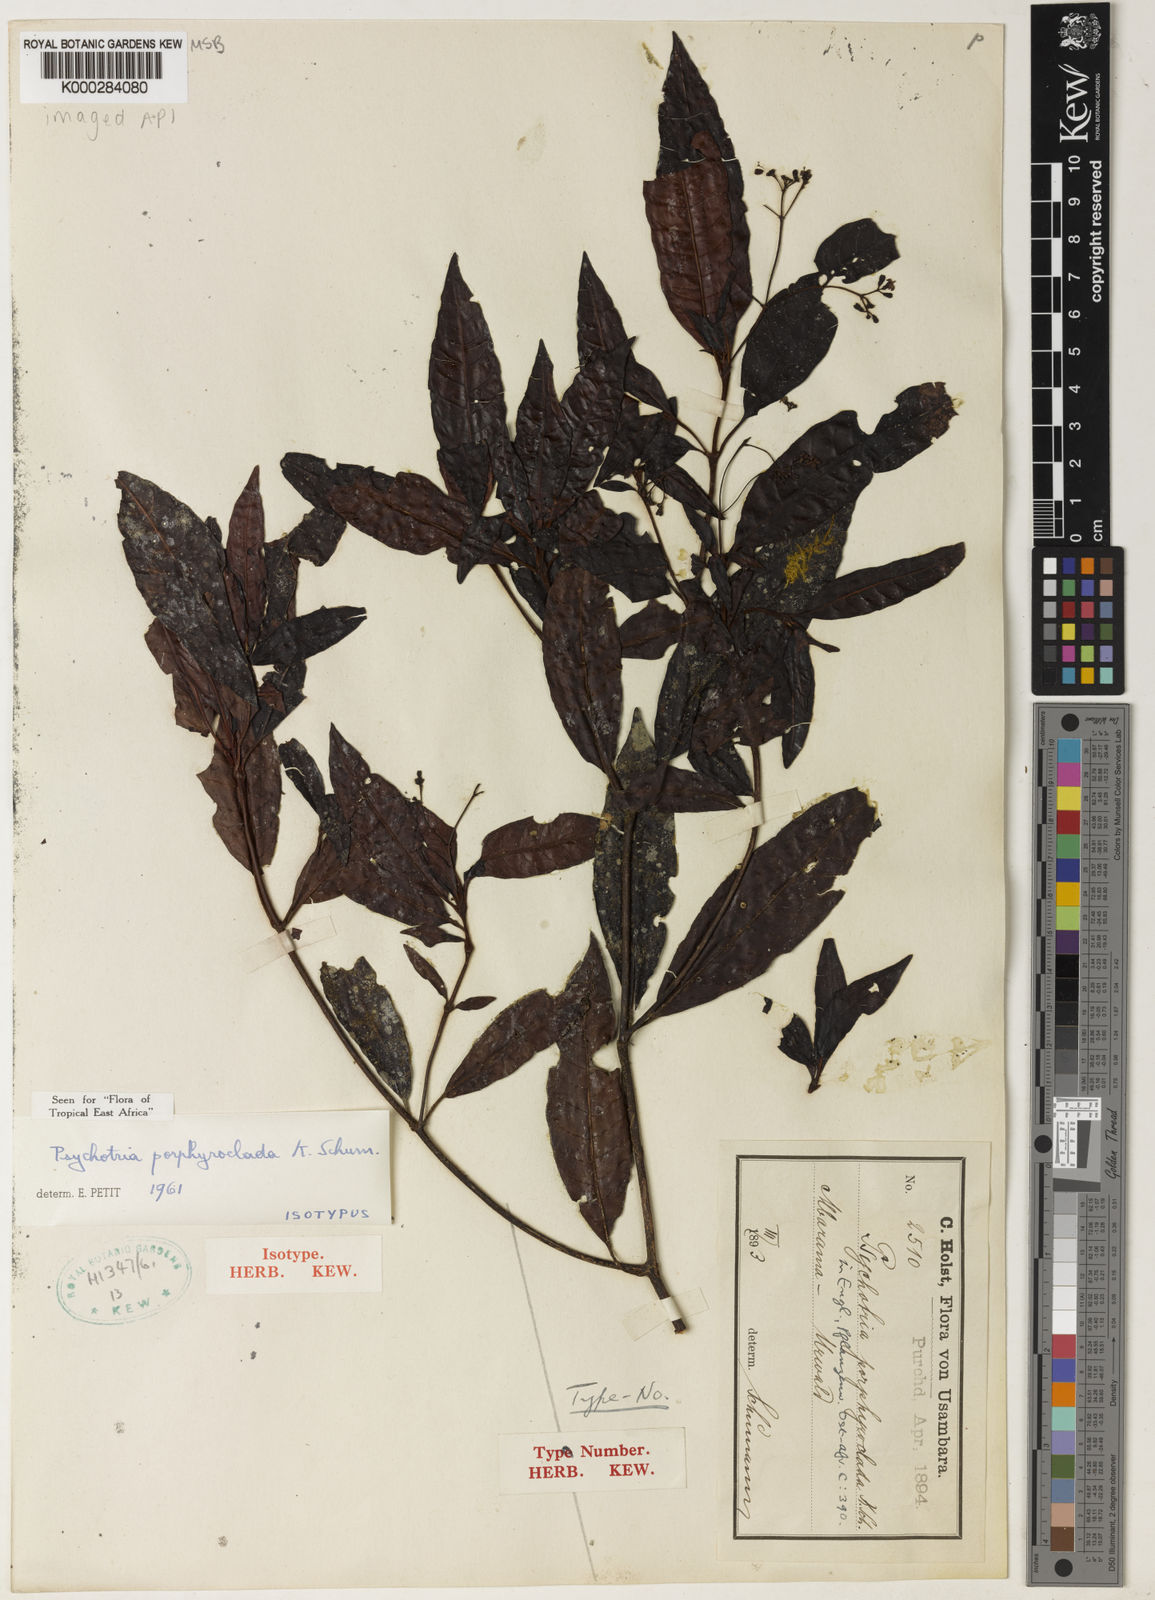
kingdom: Plantae
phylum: Tracheophyta
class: Magnoliopsida
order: Gentianales
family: Rubiaceae
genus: Psychotria
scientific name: Psychotria porphyroclada
